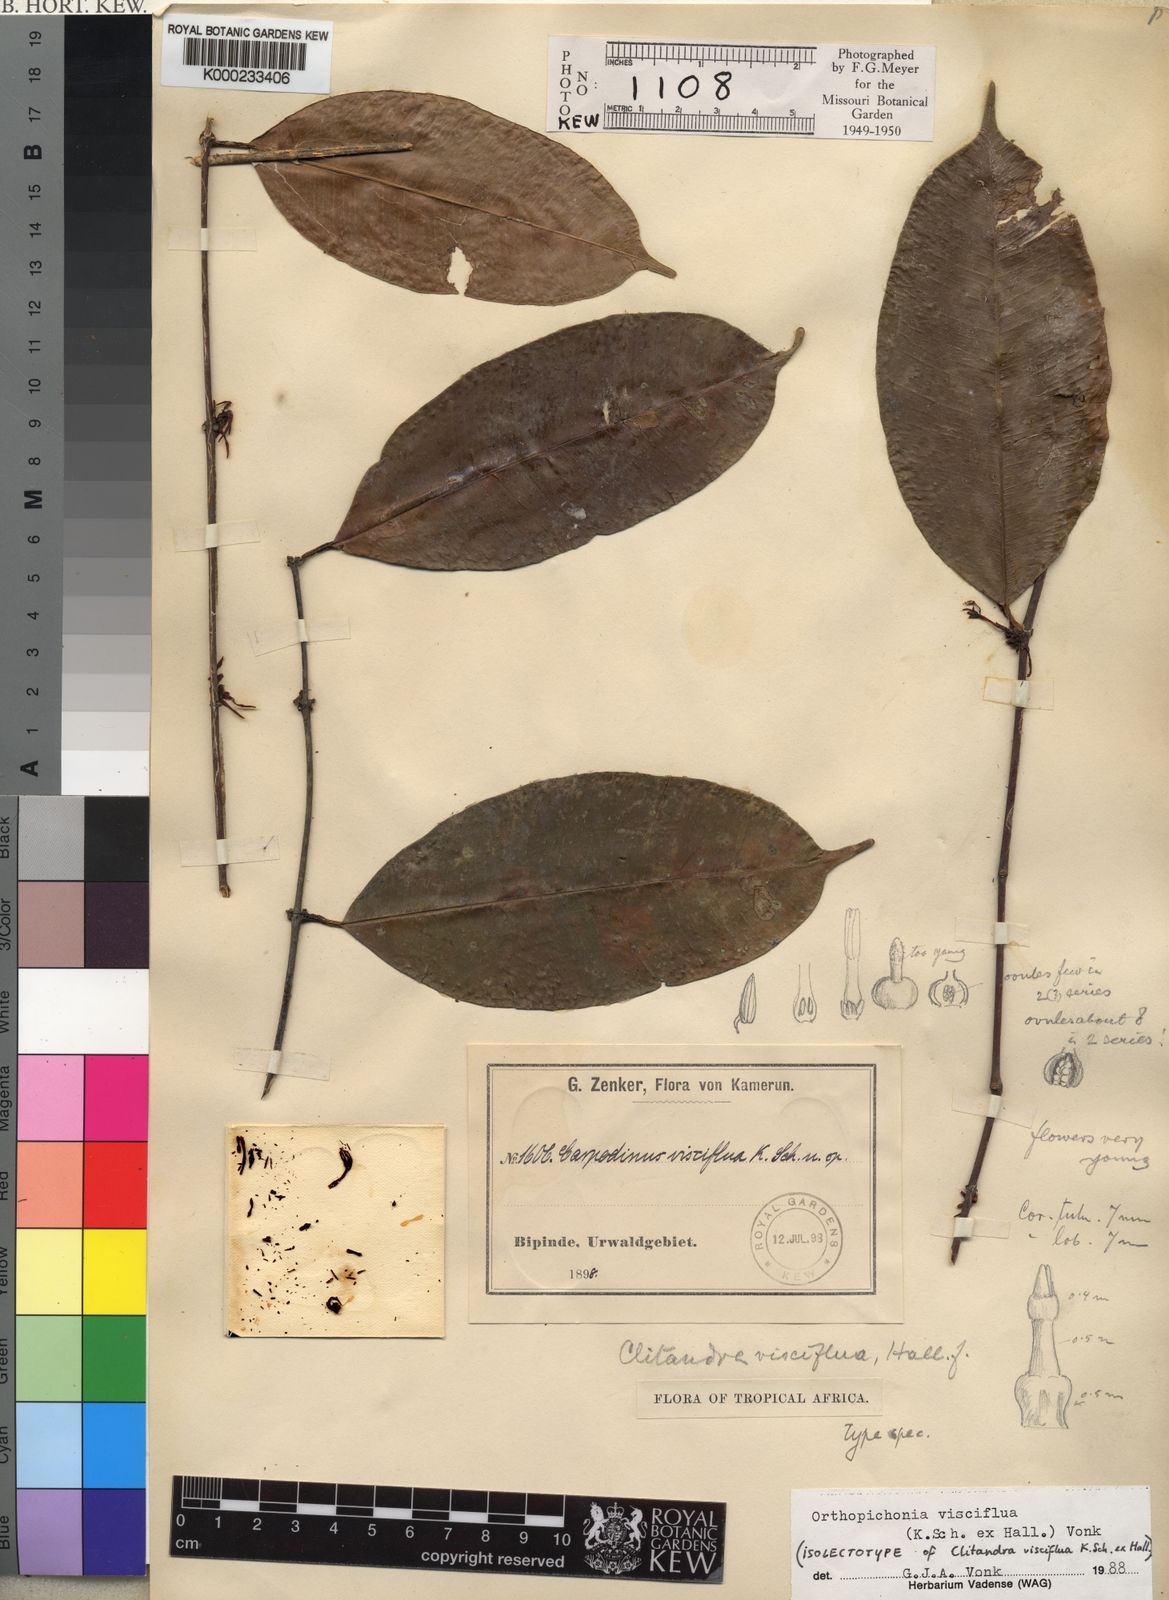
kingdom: Plantae
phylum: Tracheophyta
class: Magnoliopsida
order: Gentianales
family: Apocynaceae
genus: Orthopichonia
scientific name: Orthopichonia schweinfurthii
